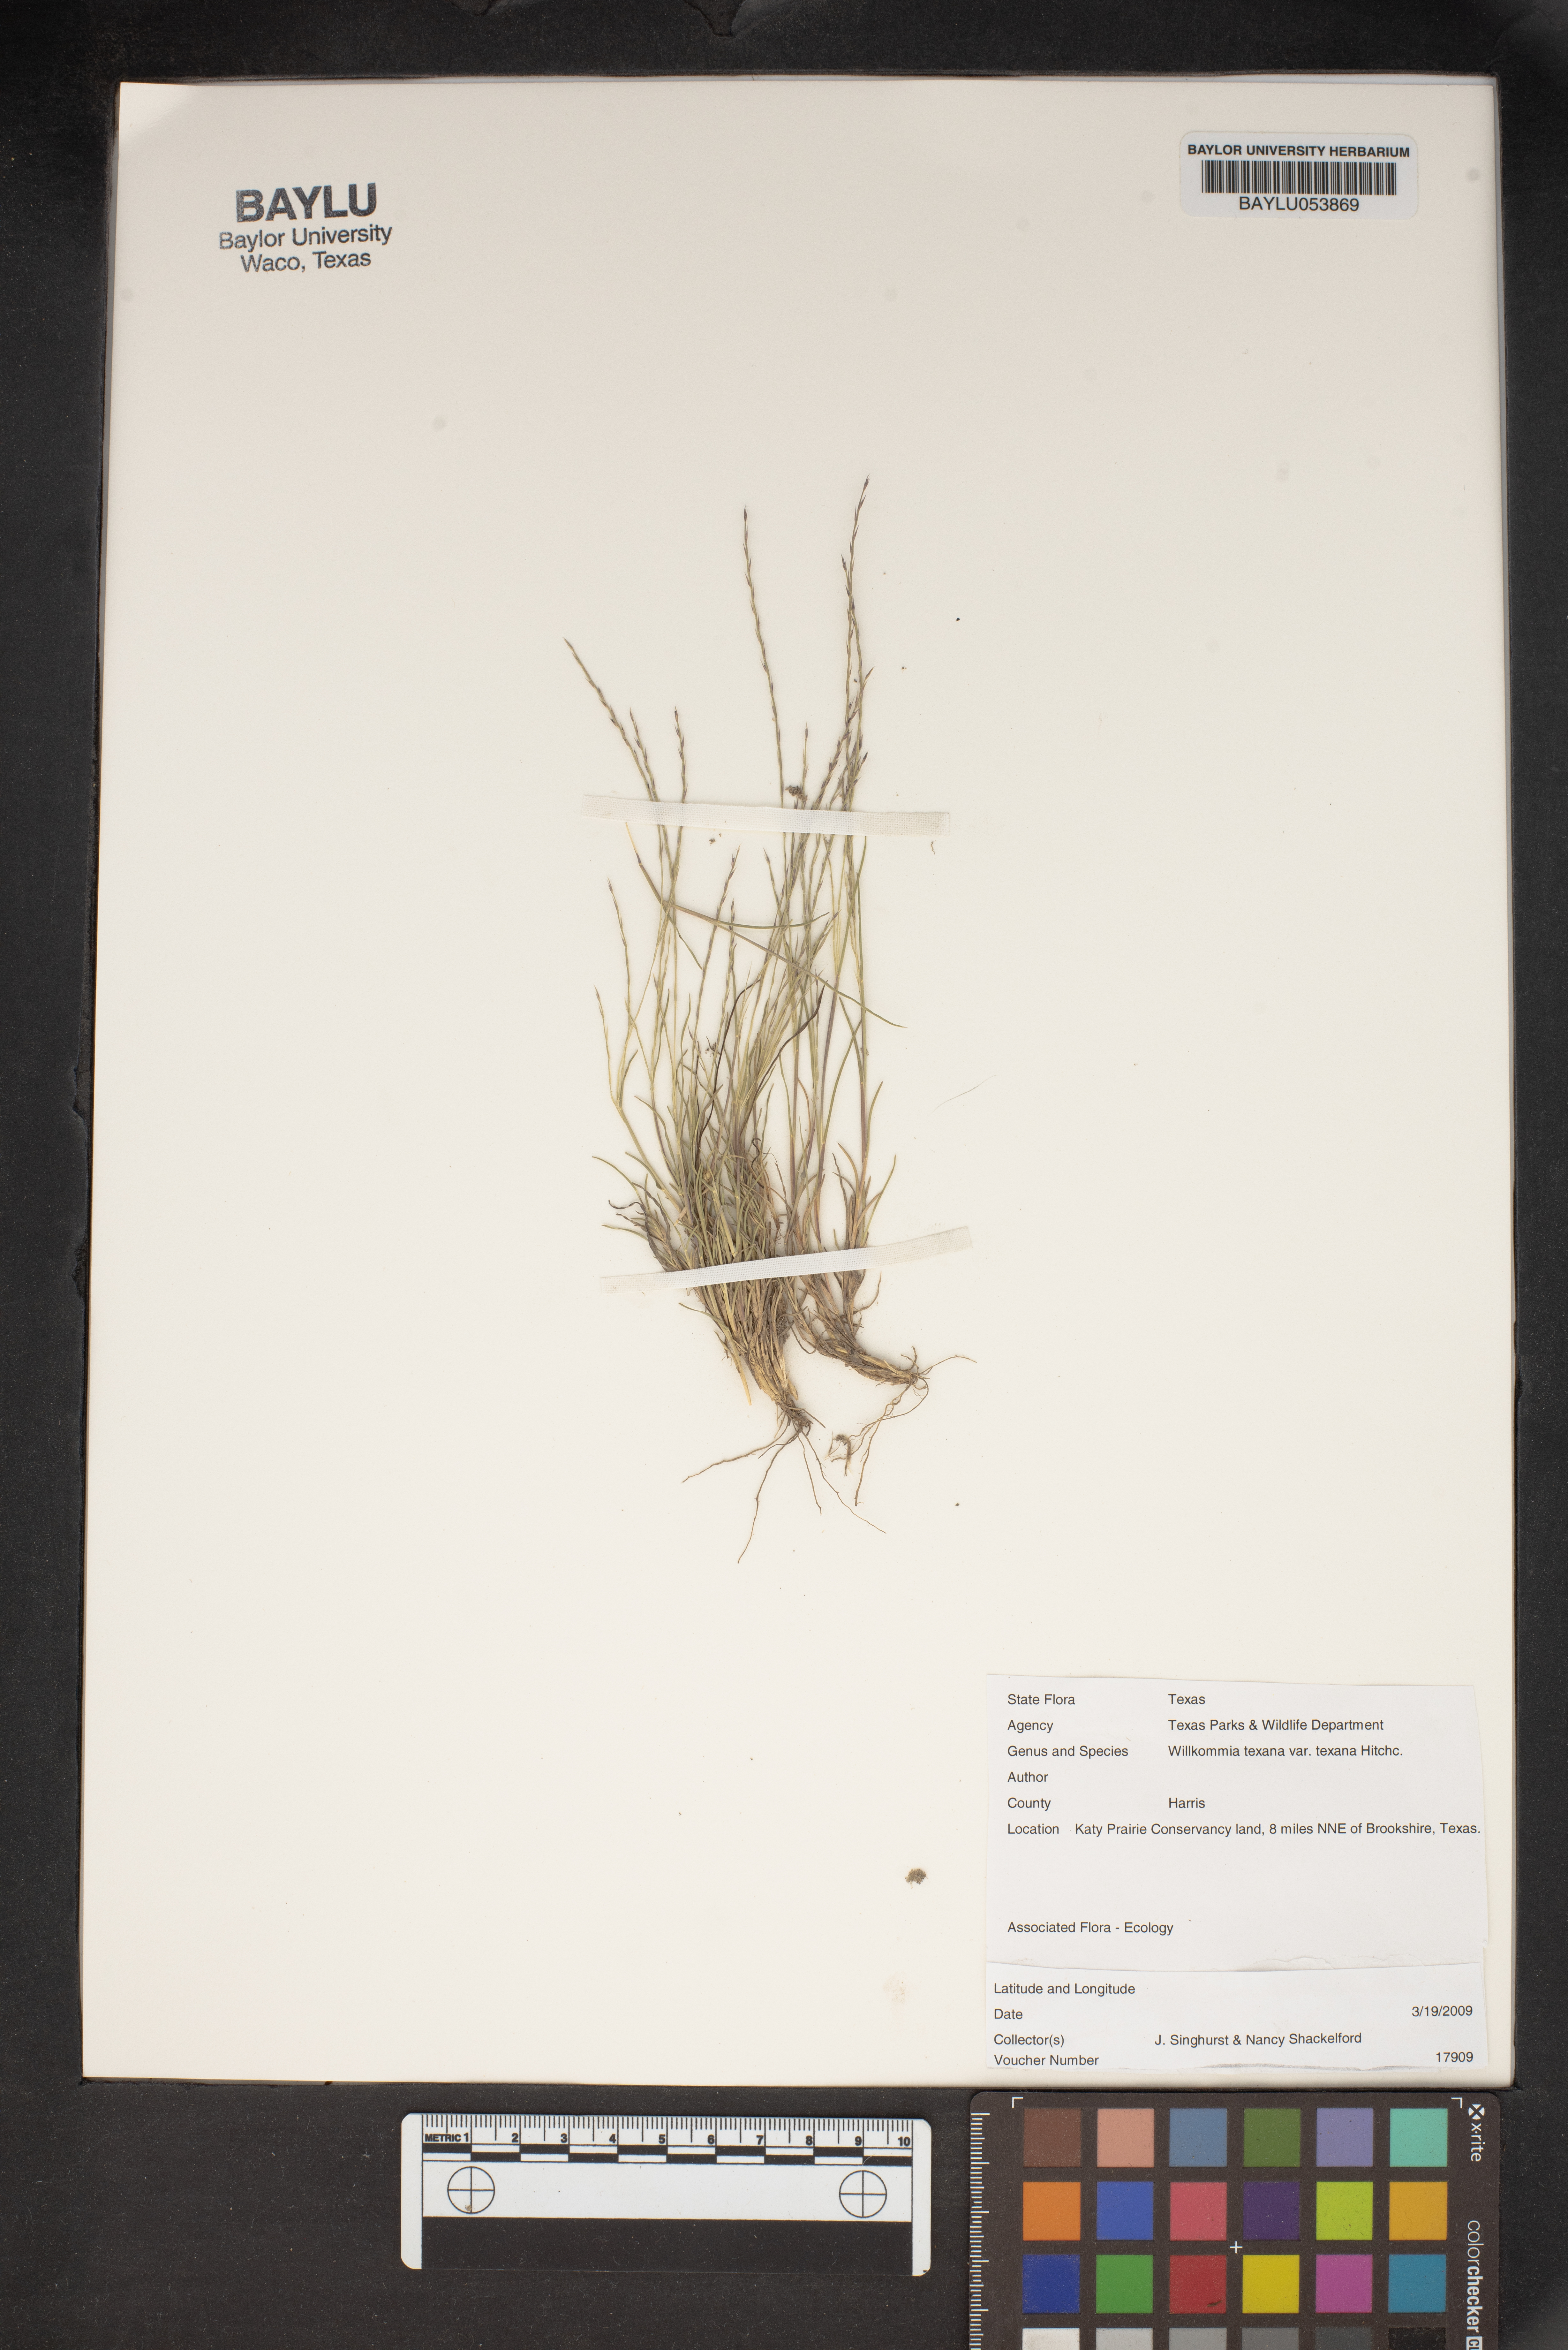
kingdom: Plantae
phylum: Tracheophyta
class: Liliopsida
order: Poales
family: Poaceae
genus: Willkommia
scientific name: Willkommia texana
